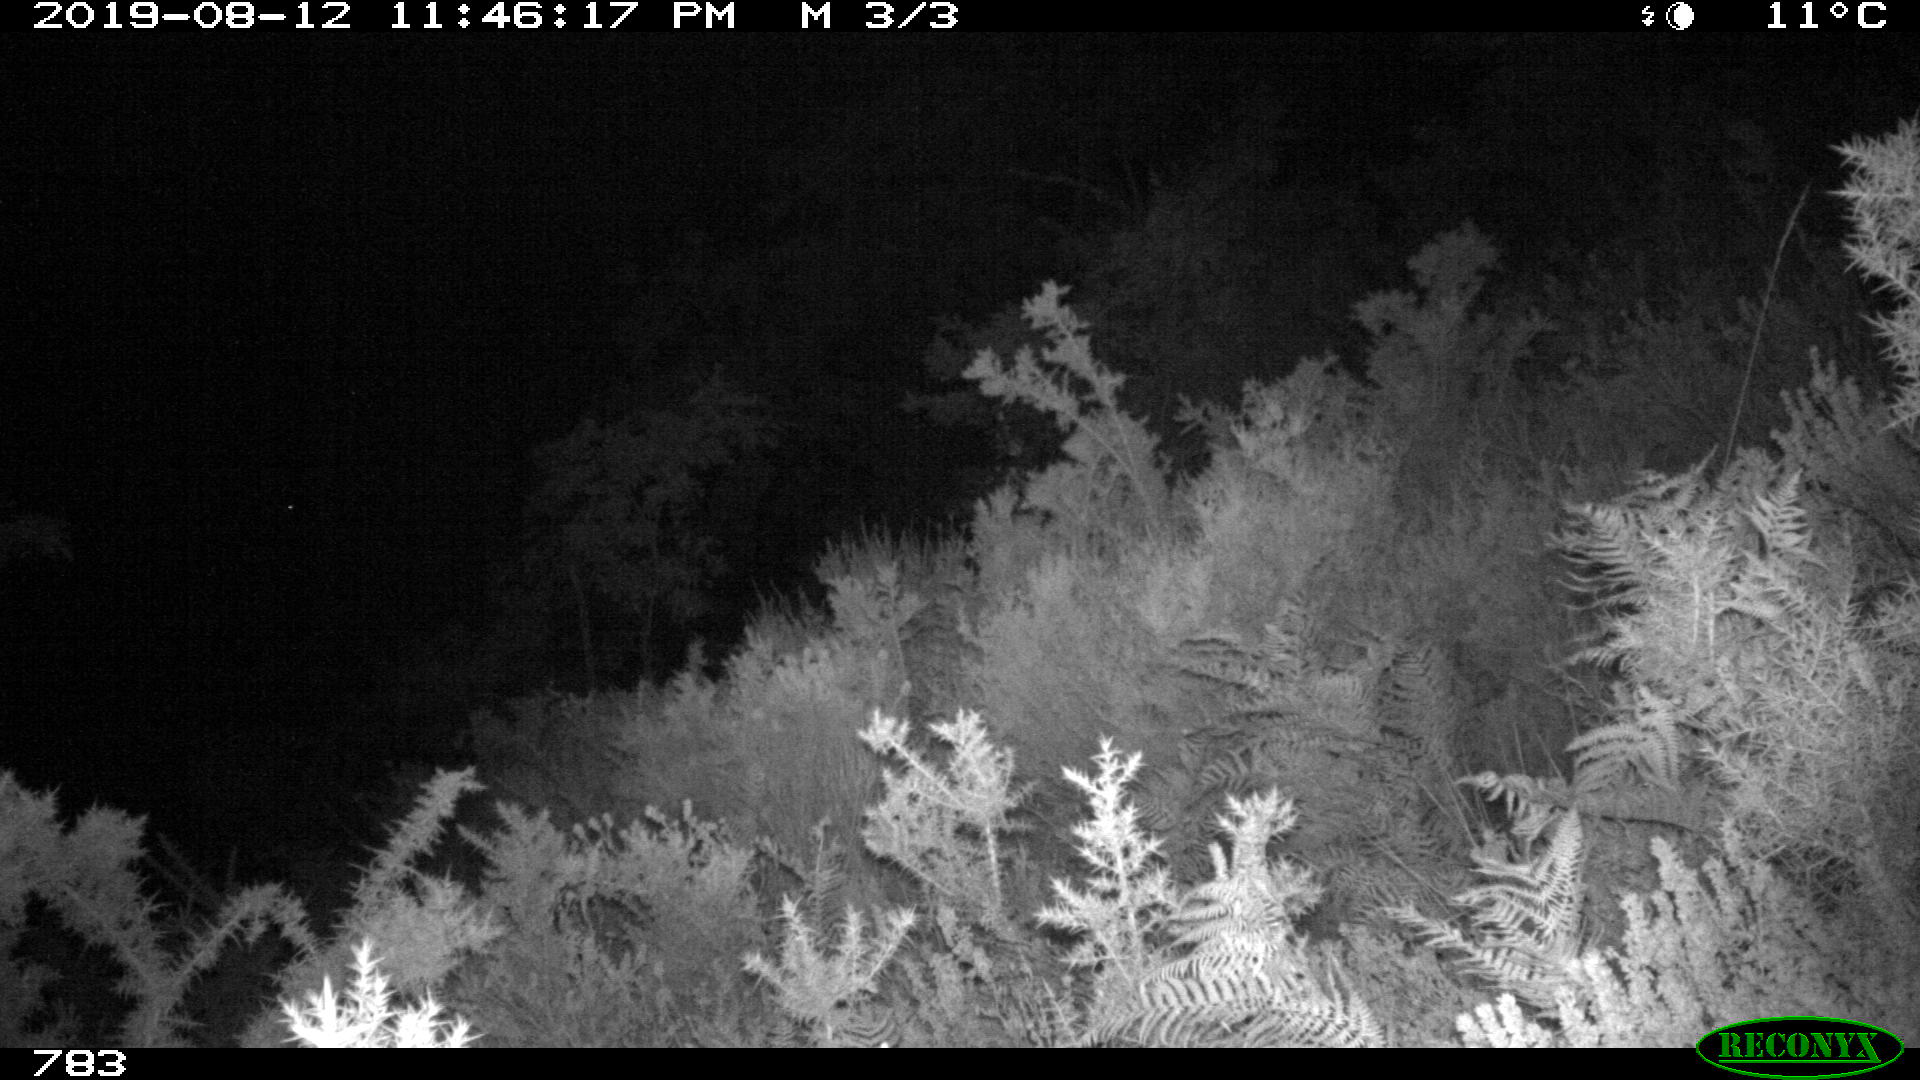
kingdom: Animalia
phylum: Chordata
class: Mammalia
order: Artiodactyla
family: Cervidae
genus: Capreolus
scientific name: Capreolus capreolus
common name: Western roe deer
